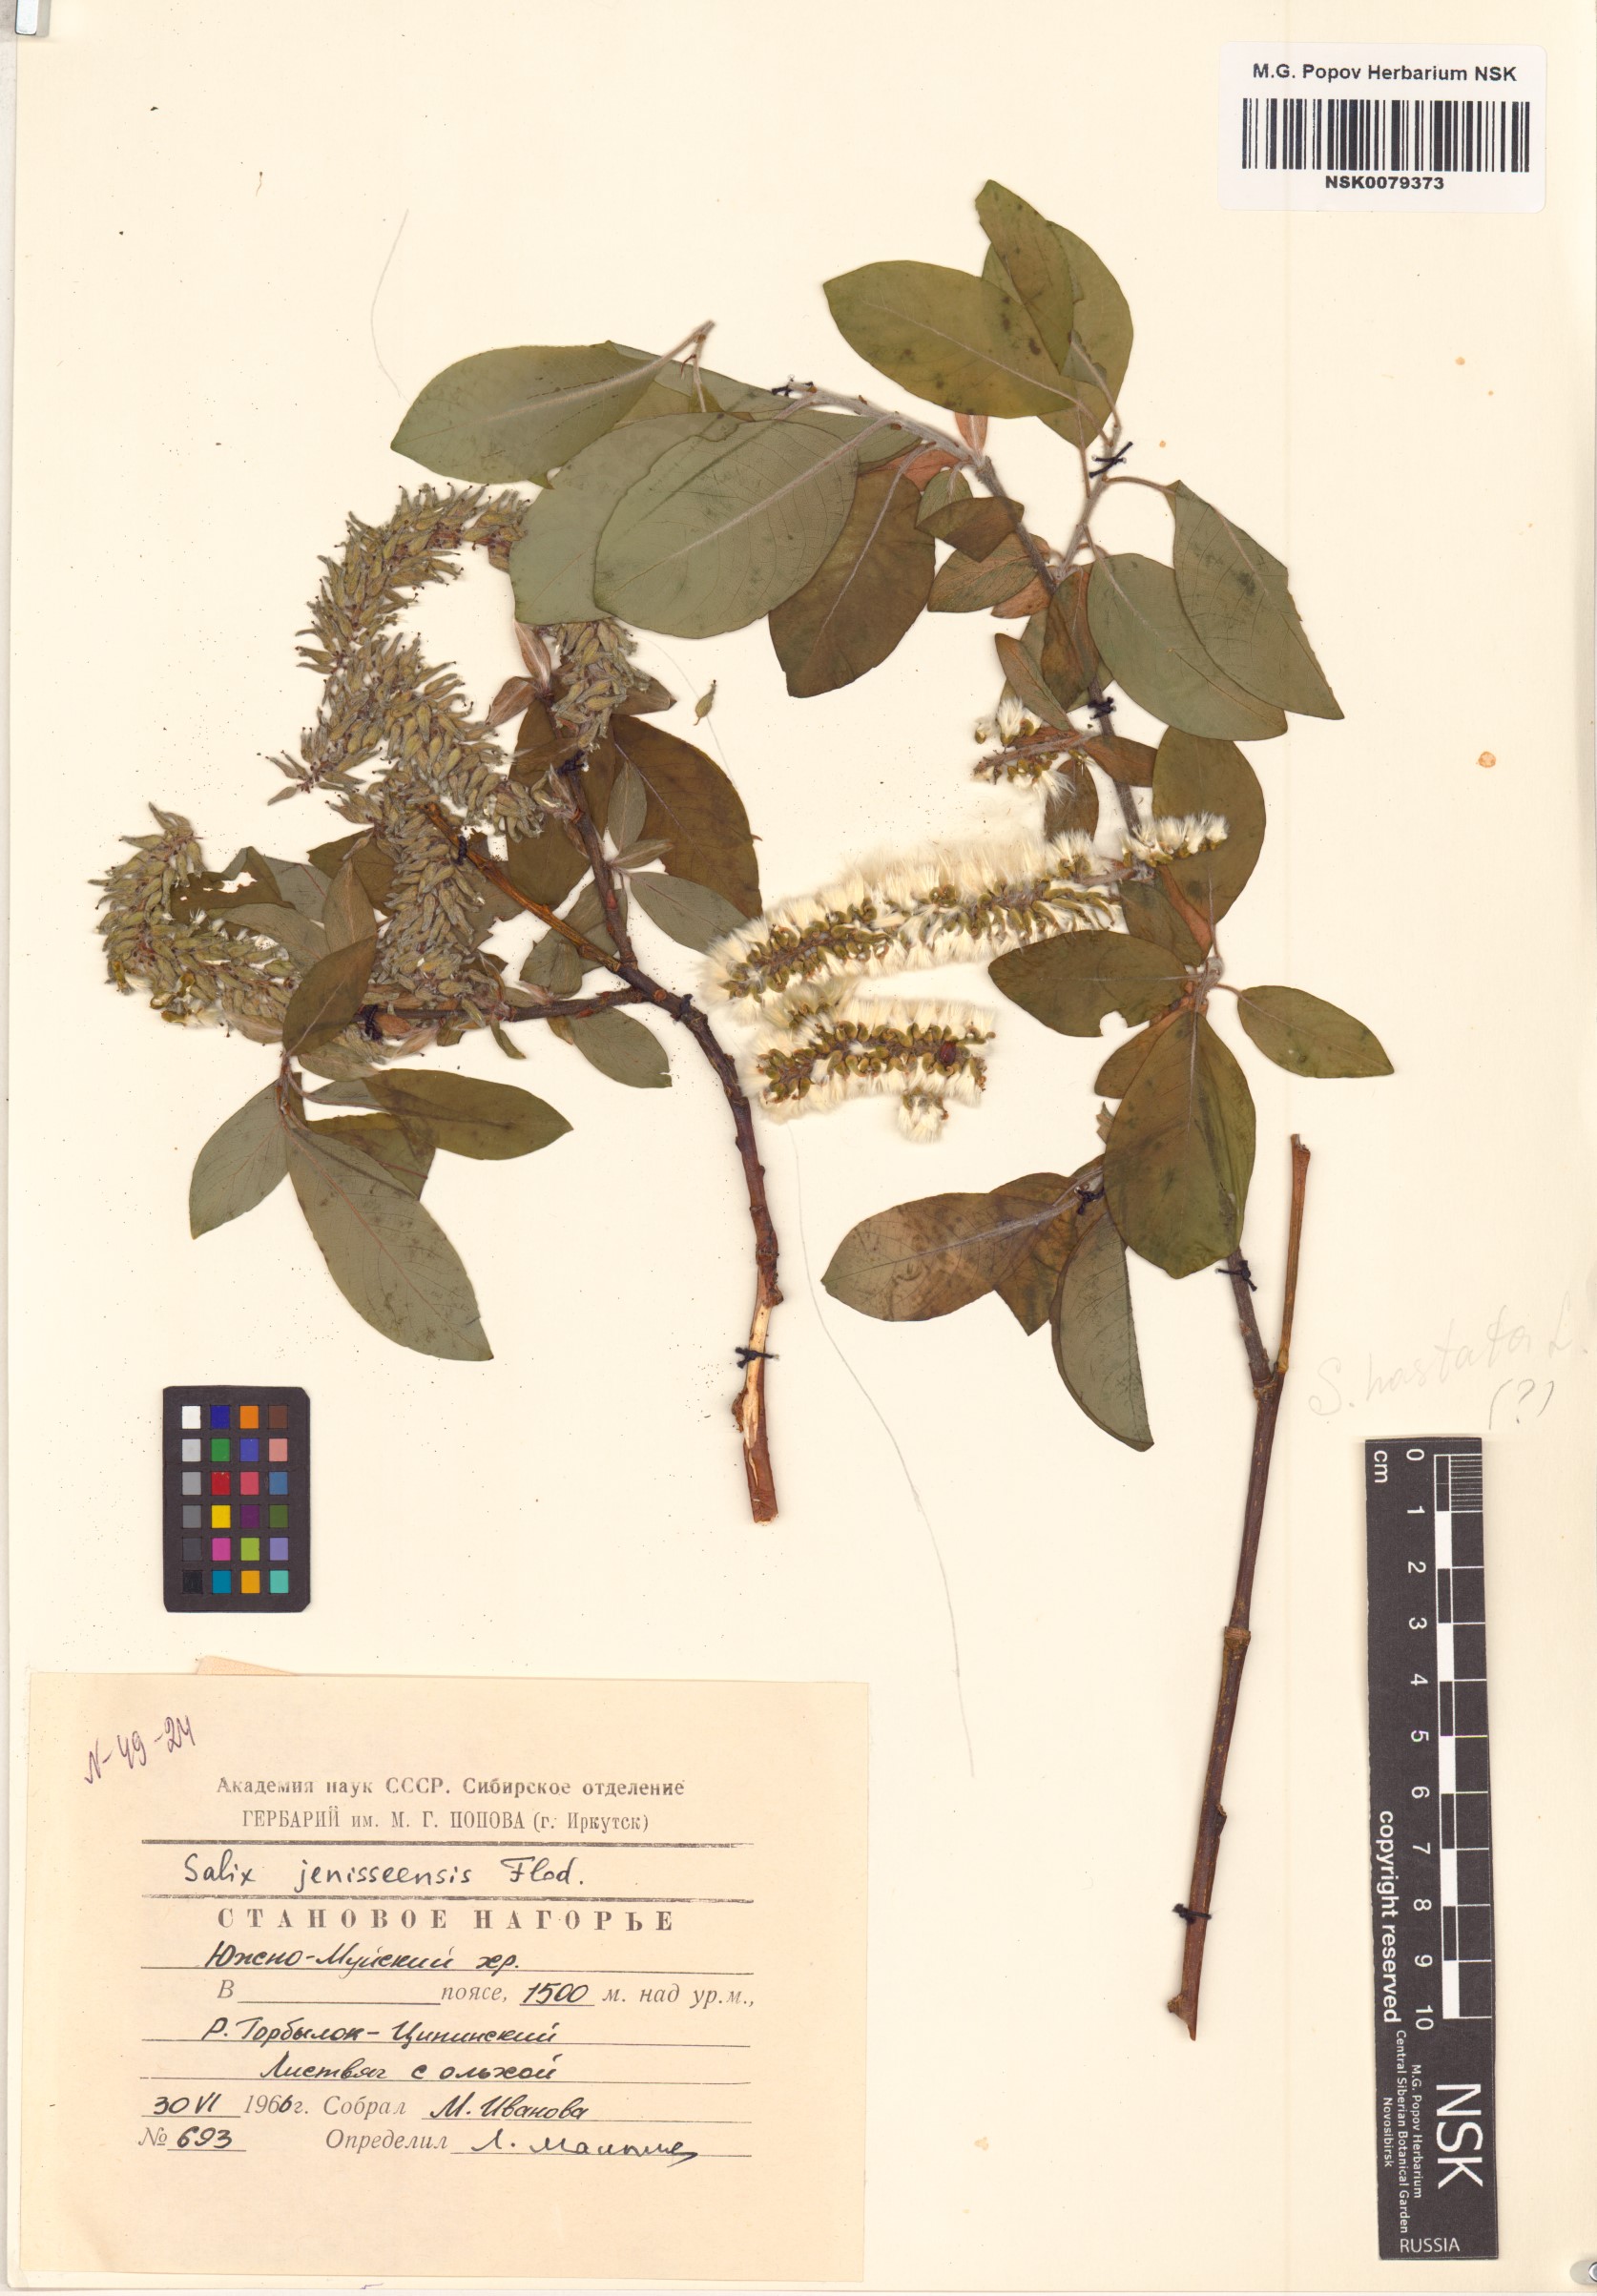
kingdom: Plantae
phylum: Tracheophyta
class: Magnoliopsida
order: Malpighiales
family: Salicaceae
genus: Salix
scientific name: Salix jenisseensis
